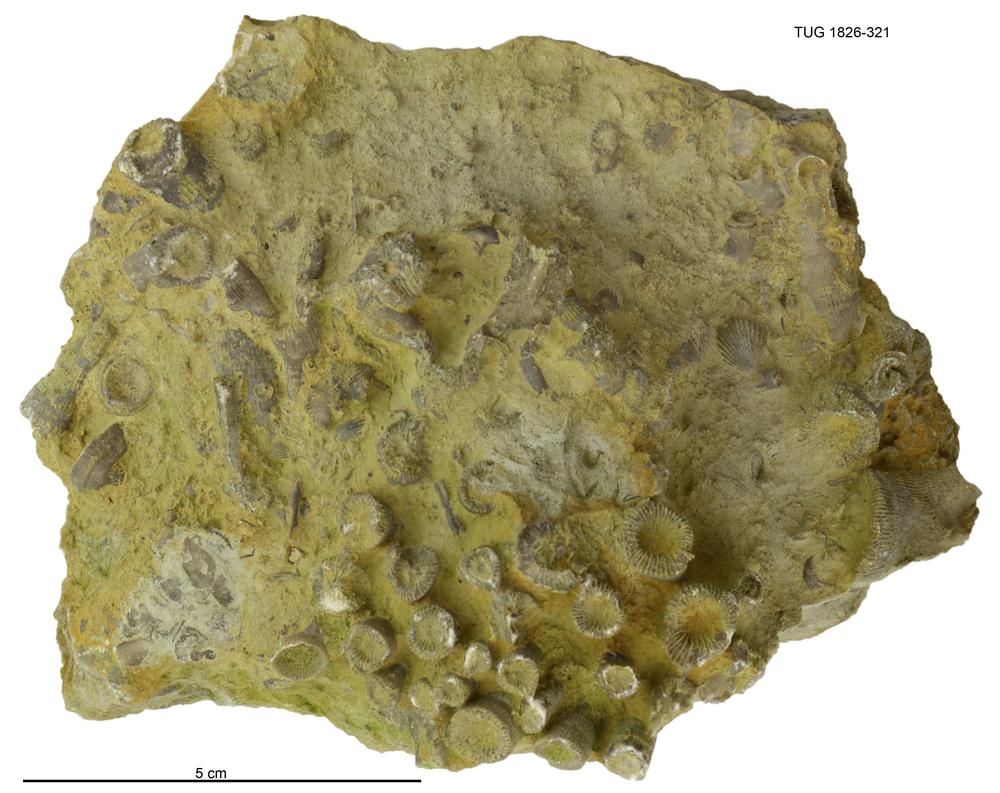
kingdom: Animalia
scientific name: Animalia
